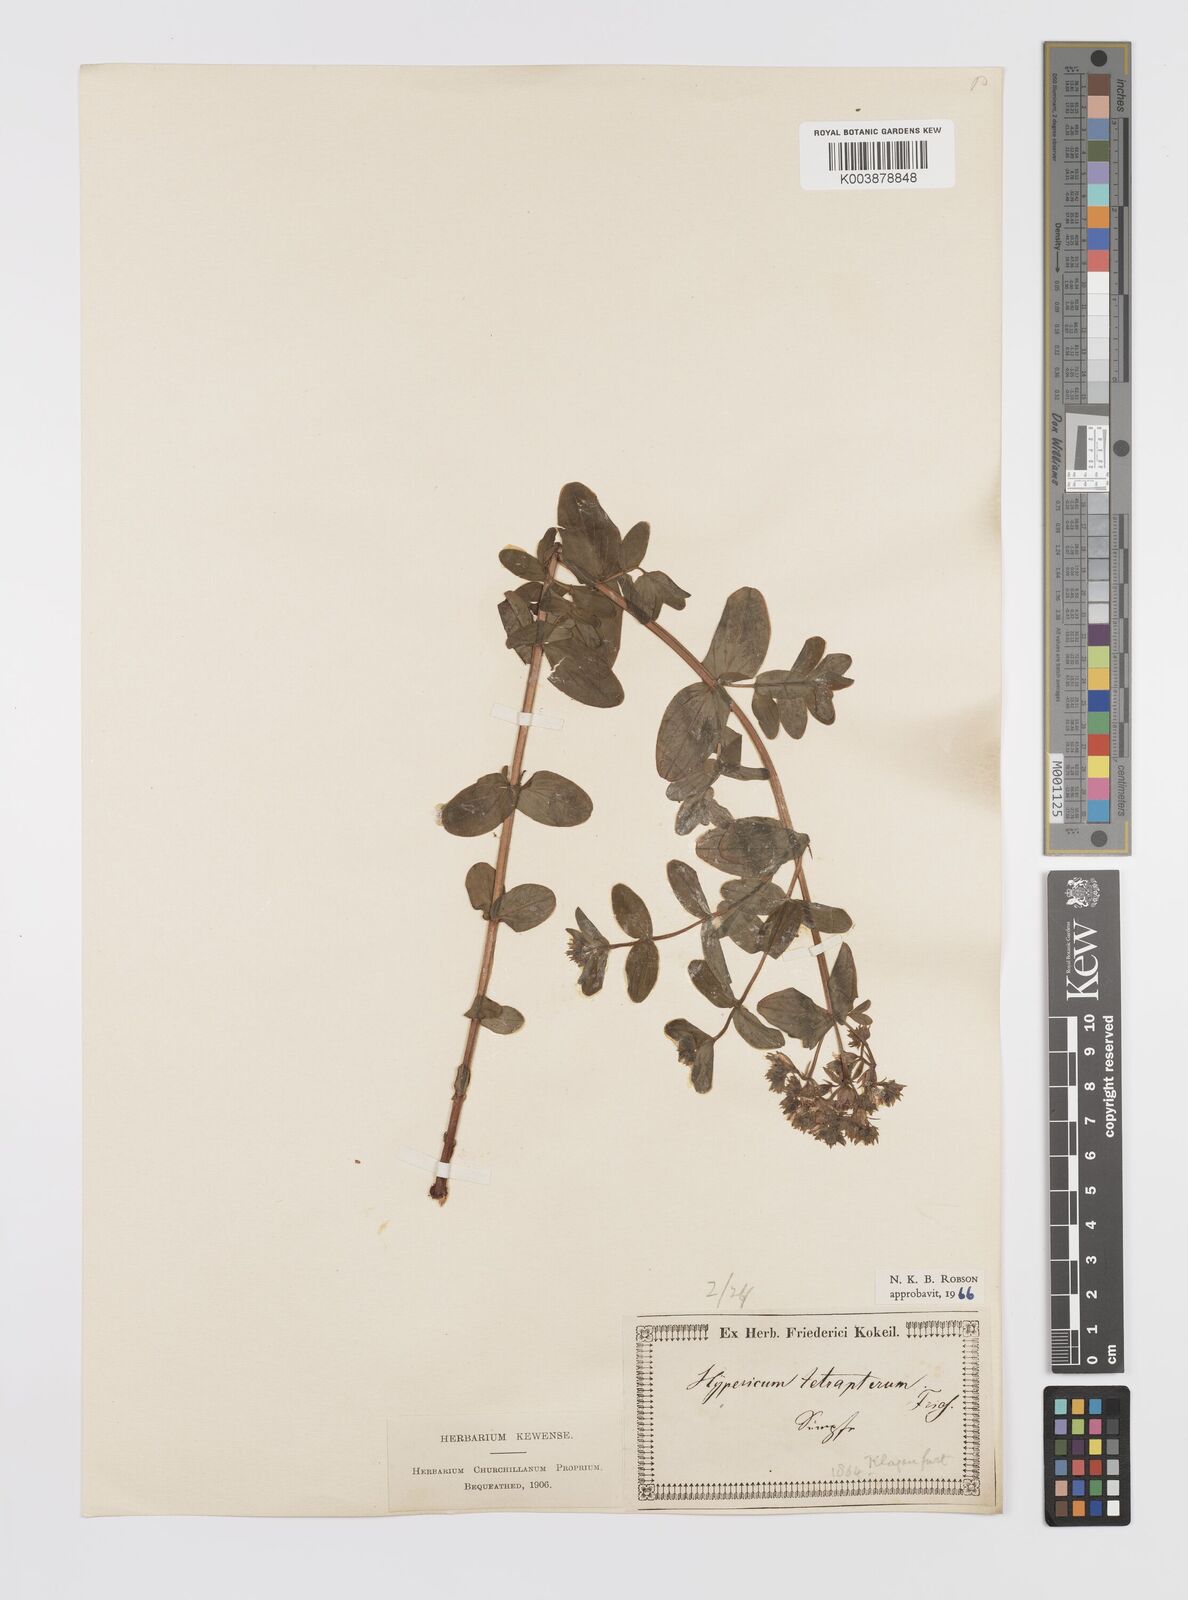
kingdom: Plantae
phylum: Tracheophyta
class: Magnoliopsida
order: Malpighiales
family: Hypericaceae
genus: Hypericum
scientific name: Hypericum tetrapterum
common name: Square-stalked st. john's-wort
